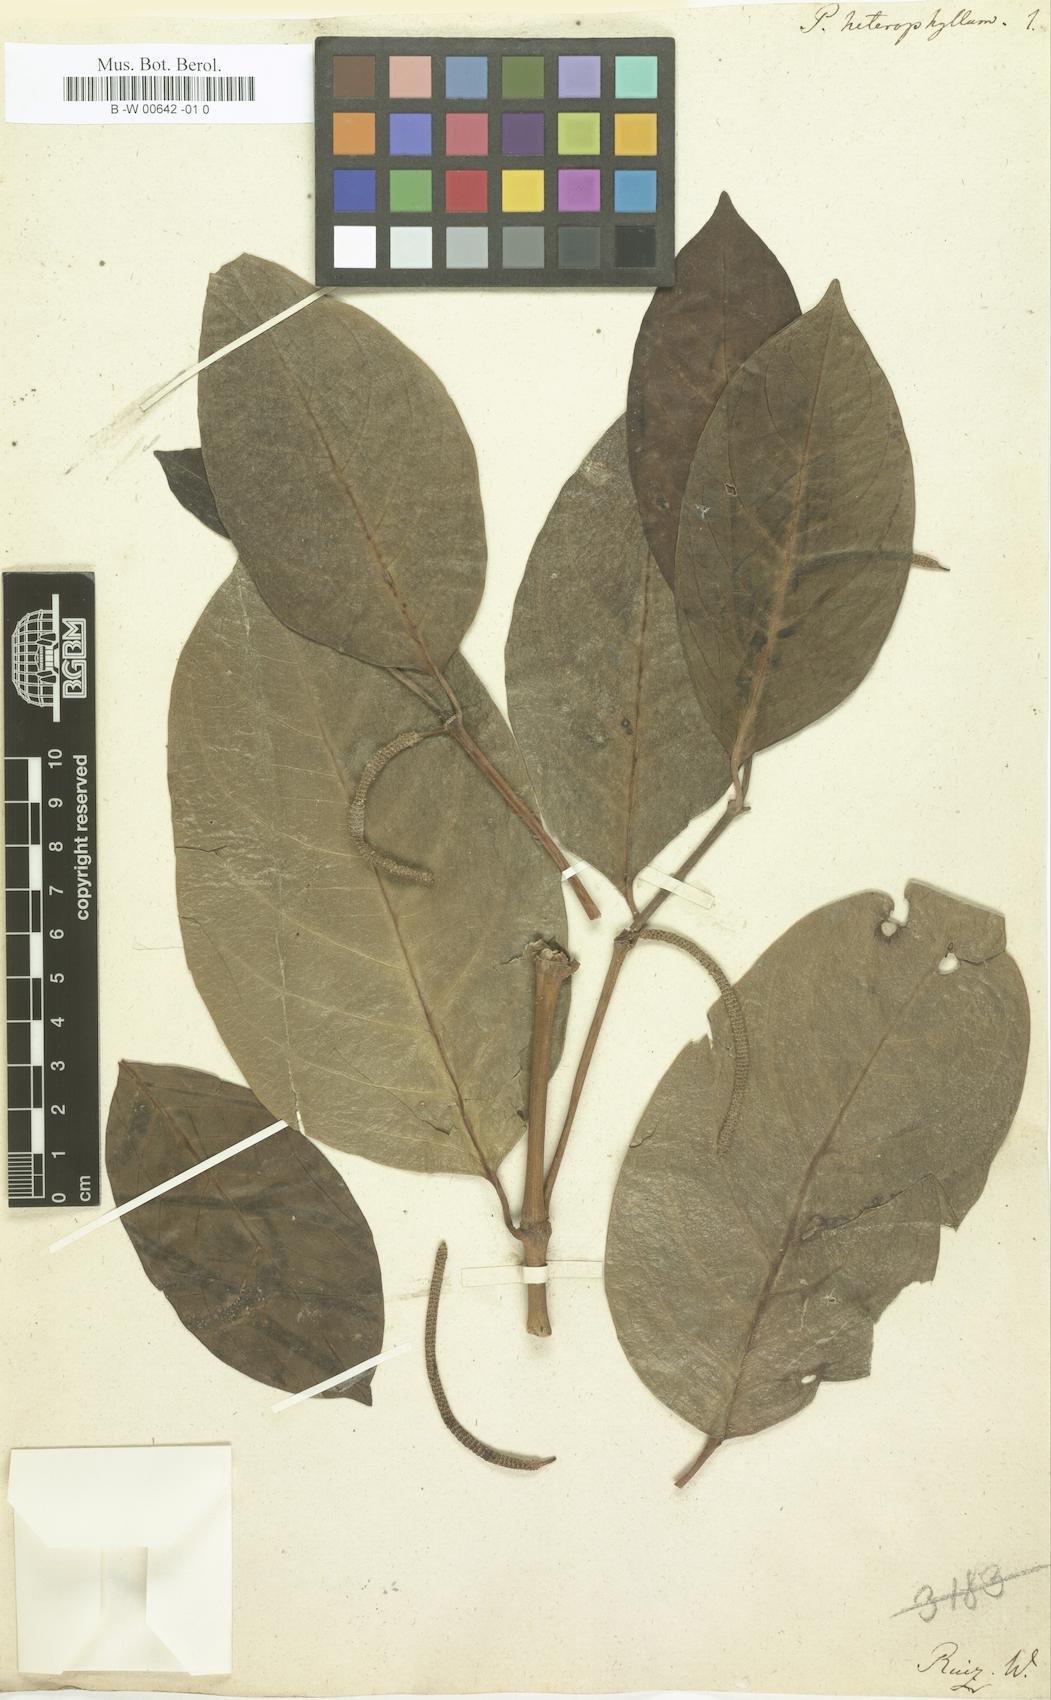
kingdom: Plantae
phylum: Tracheophyta
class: Magnoliopsida
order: Piperales
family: Piperaceae
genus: Piper
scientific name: Piper heterophyllum
